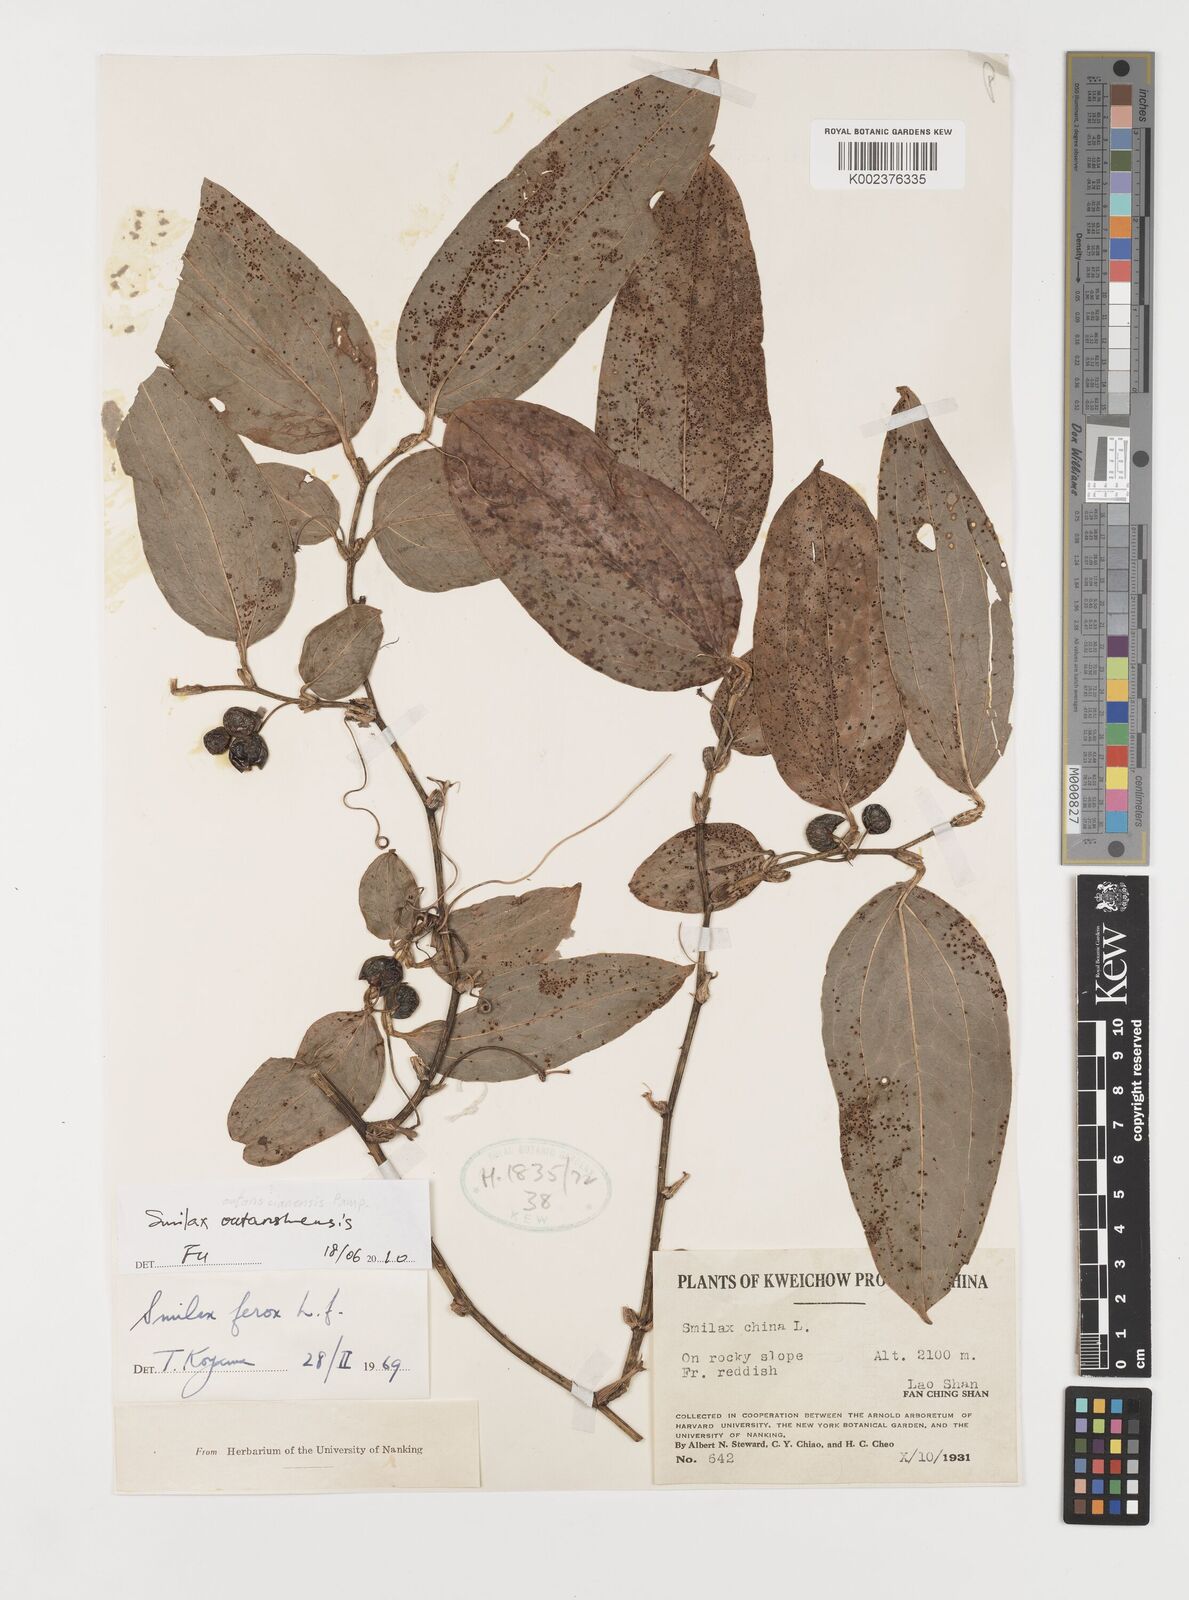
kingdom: Plantae
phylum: Tracheophyta
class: Liliopsida
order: Liliales
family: Smilacaceae
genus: Smilax
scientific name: Smilax outanscianensis
